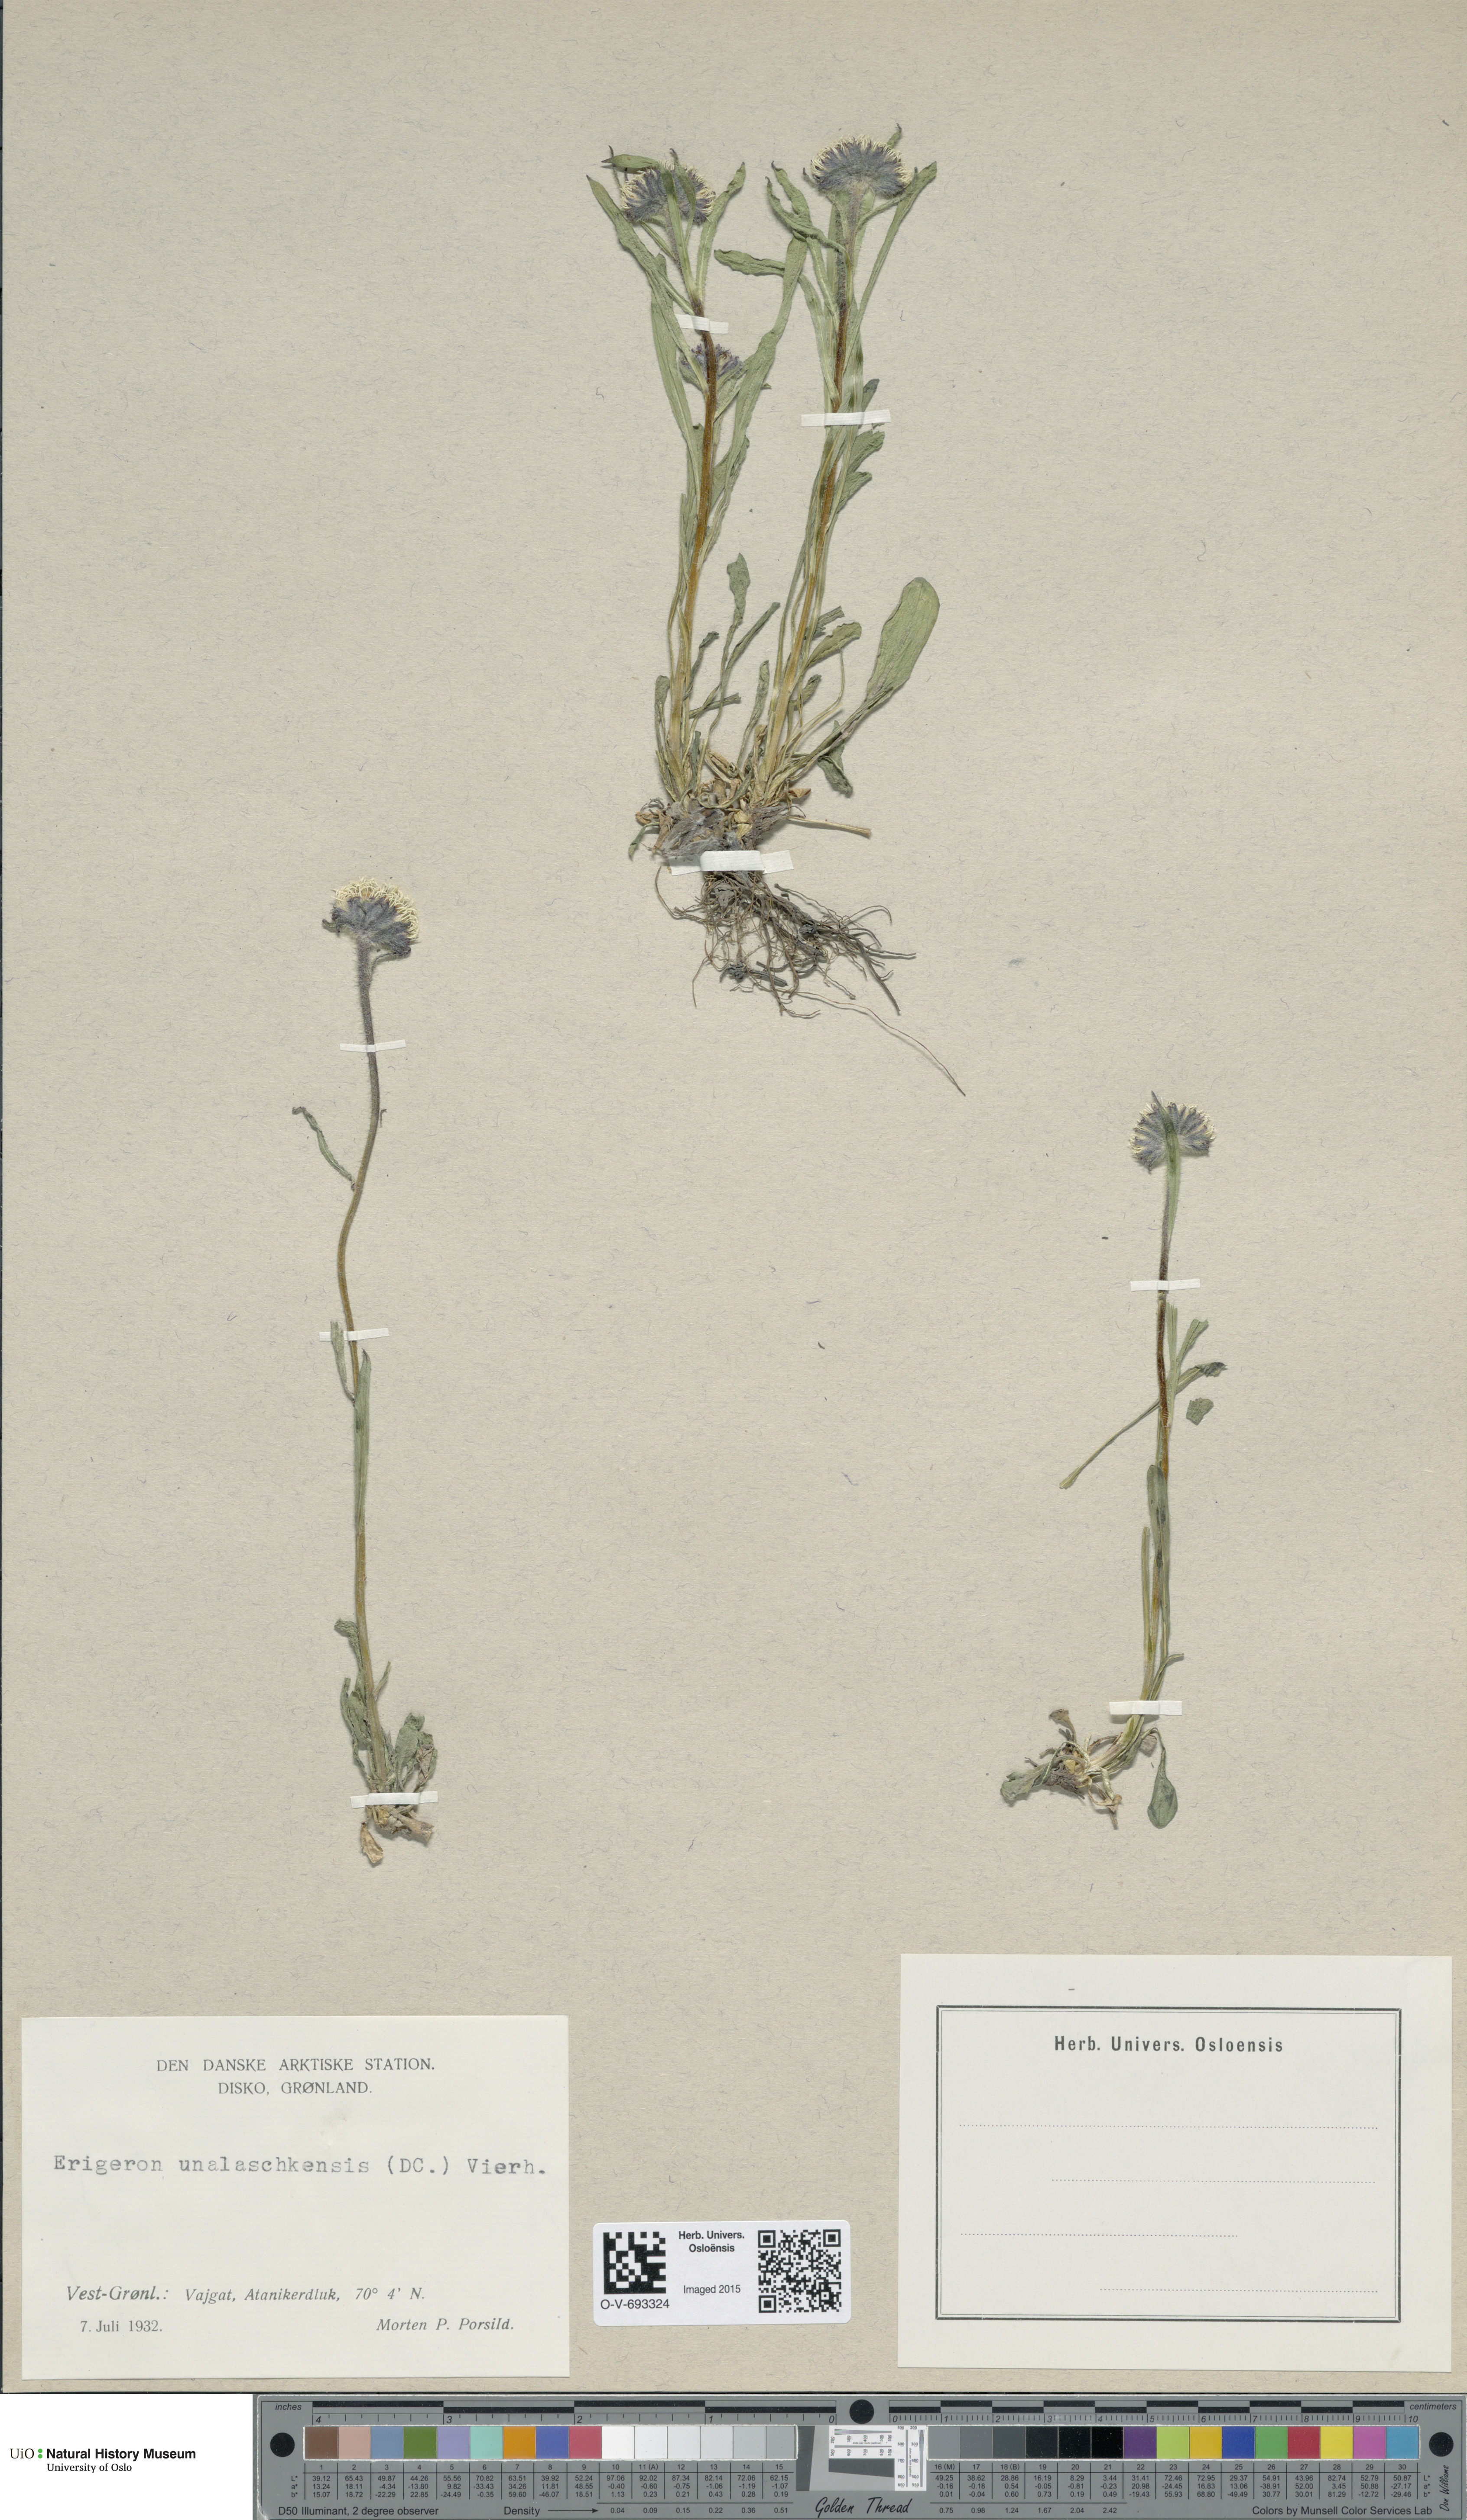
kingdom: Plantae
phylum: Tracheophyta
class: Magnoliopsida
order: Asterales
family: Asteraceae
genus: Erigeron
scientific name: Erigeron humilis
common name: Arctic-alpine fleabane
